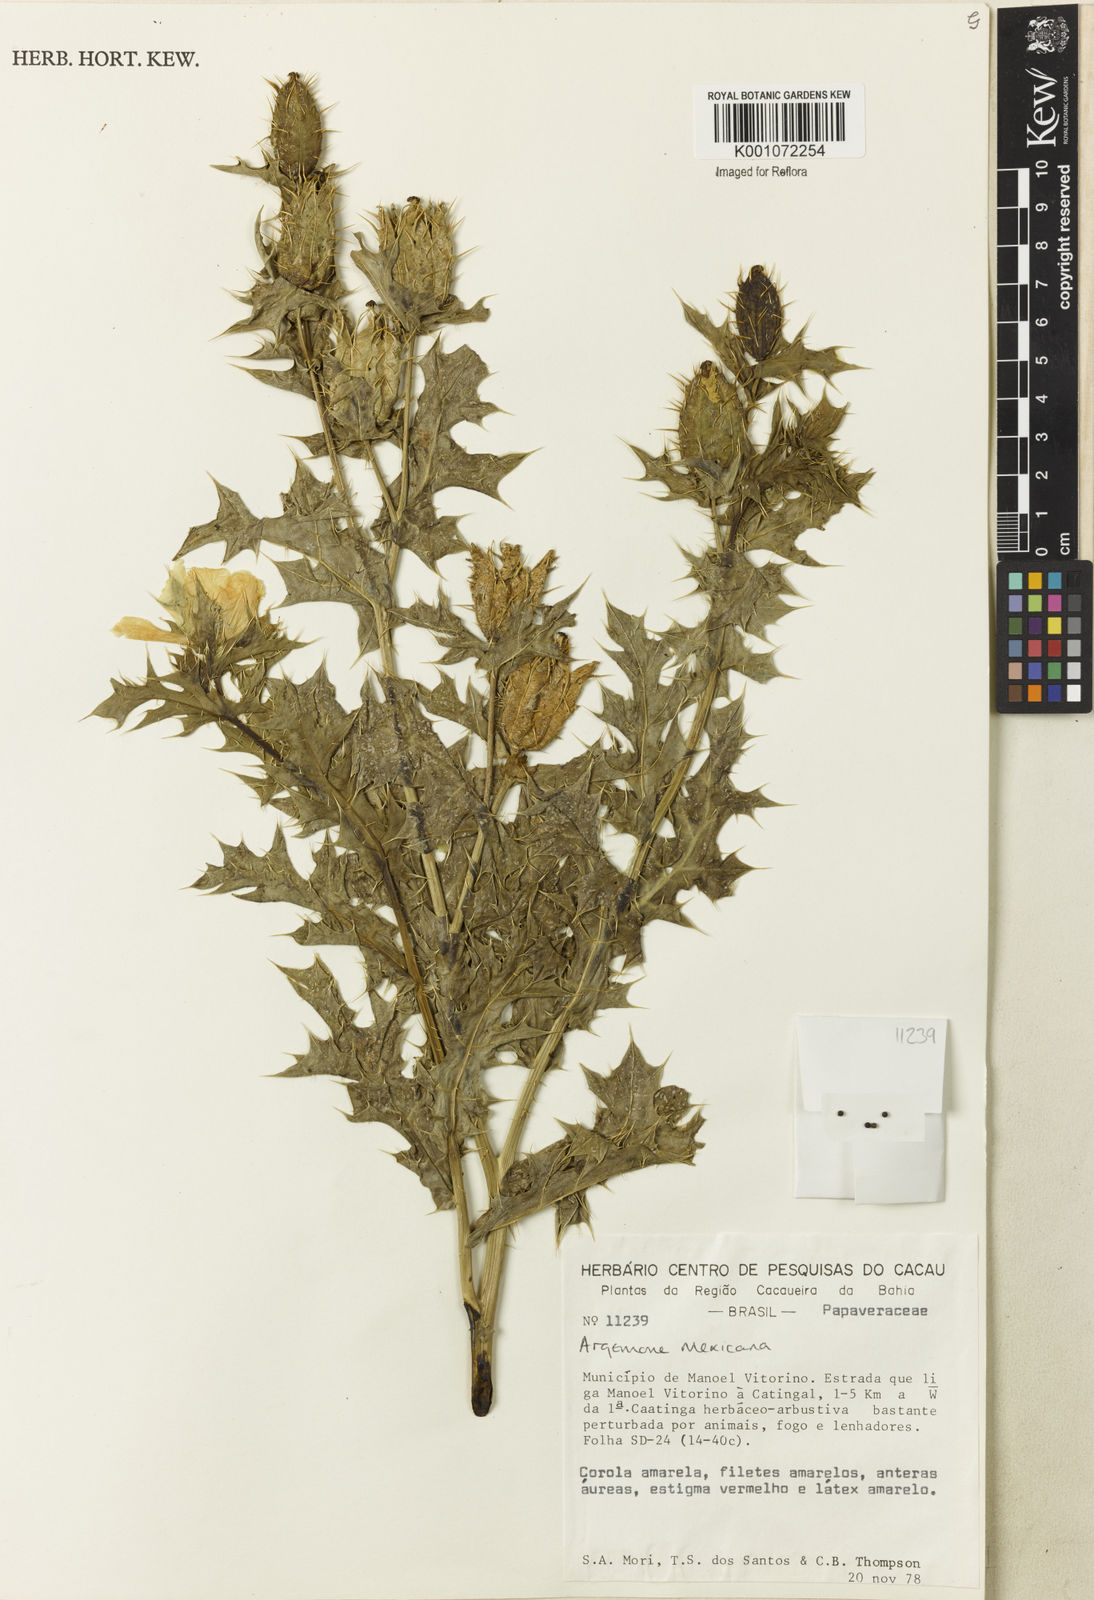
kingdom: Plantae
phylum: Tracheophyta
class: Magnoliopsida
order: Ranunculales
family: Papaveraceae
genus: Argemone
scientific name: Argemone mexicana
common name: Mexican poppy
